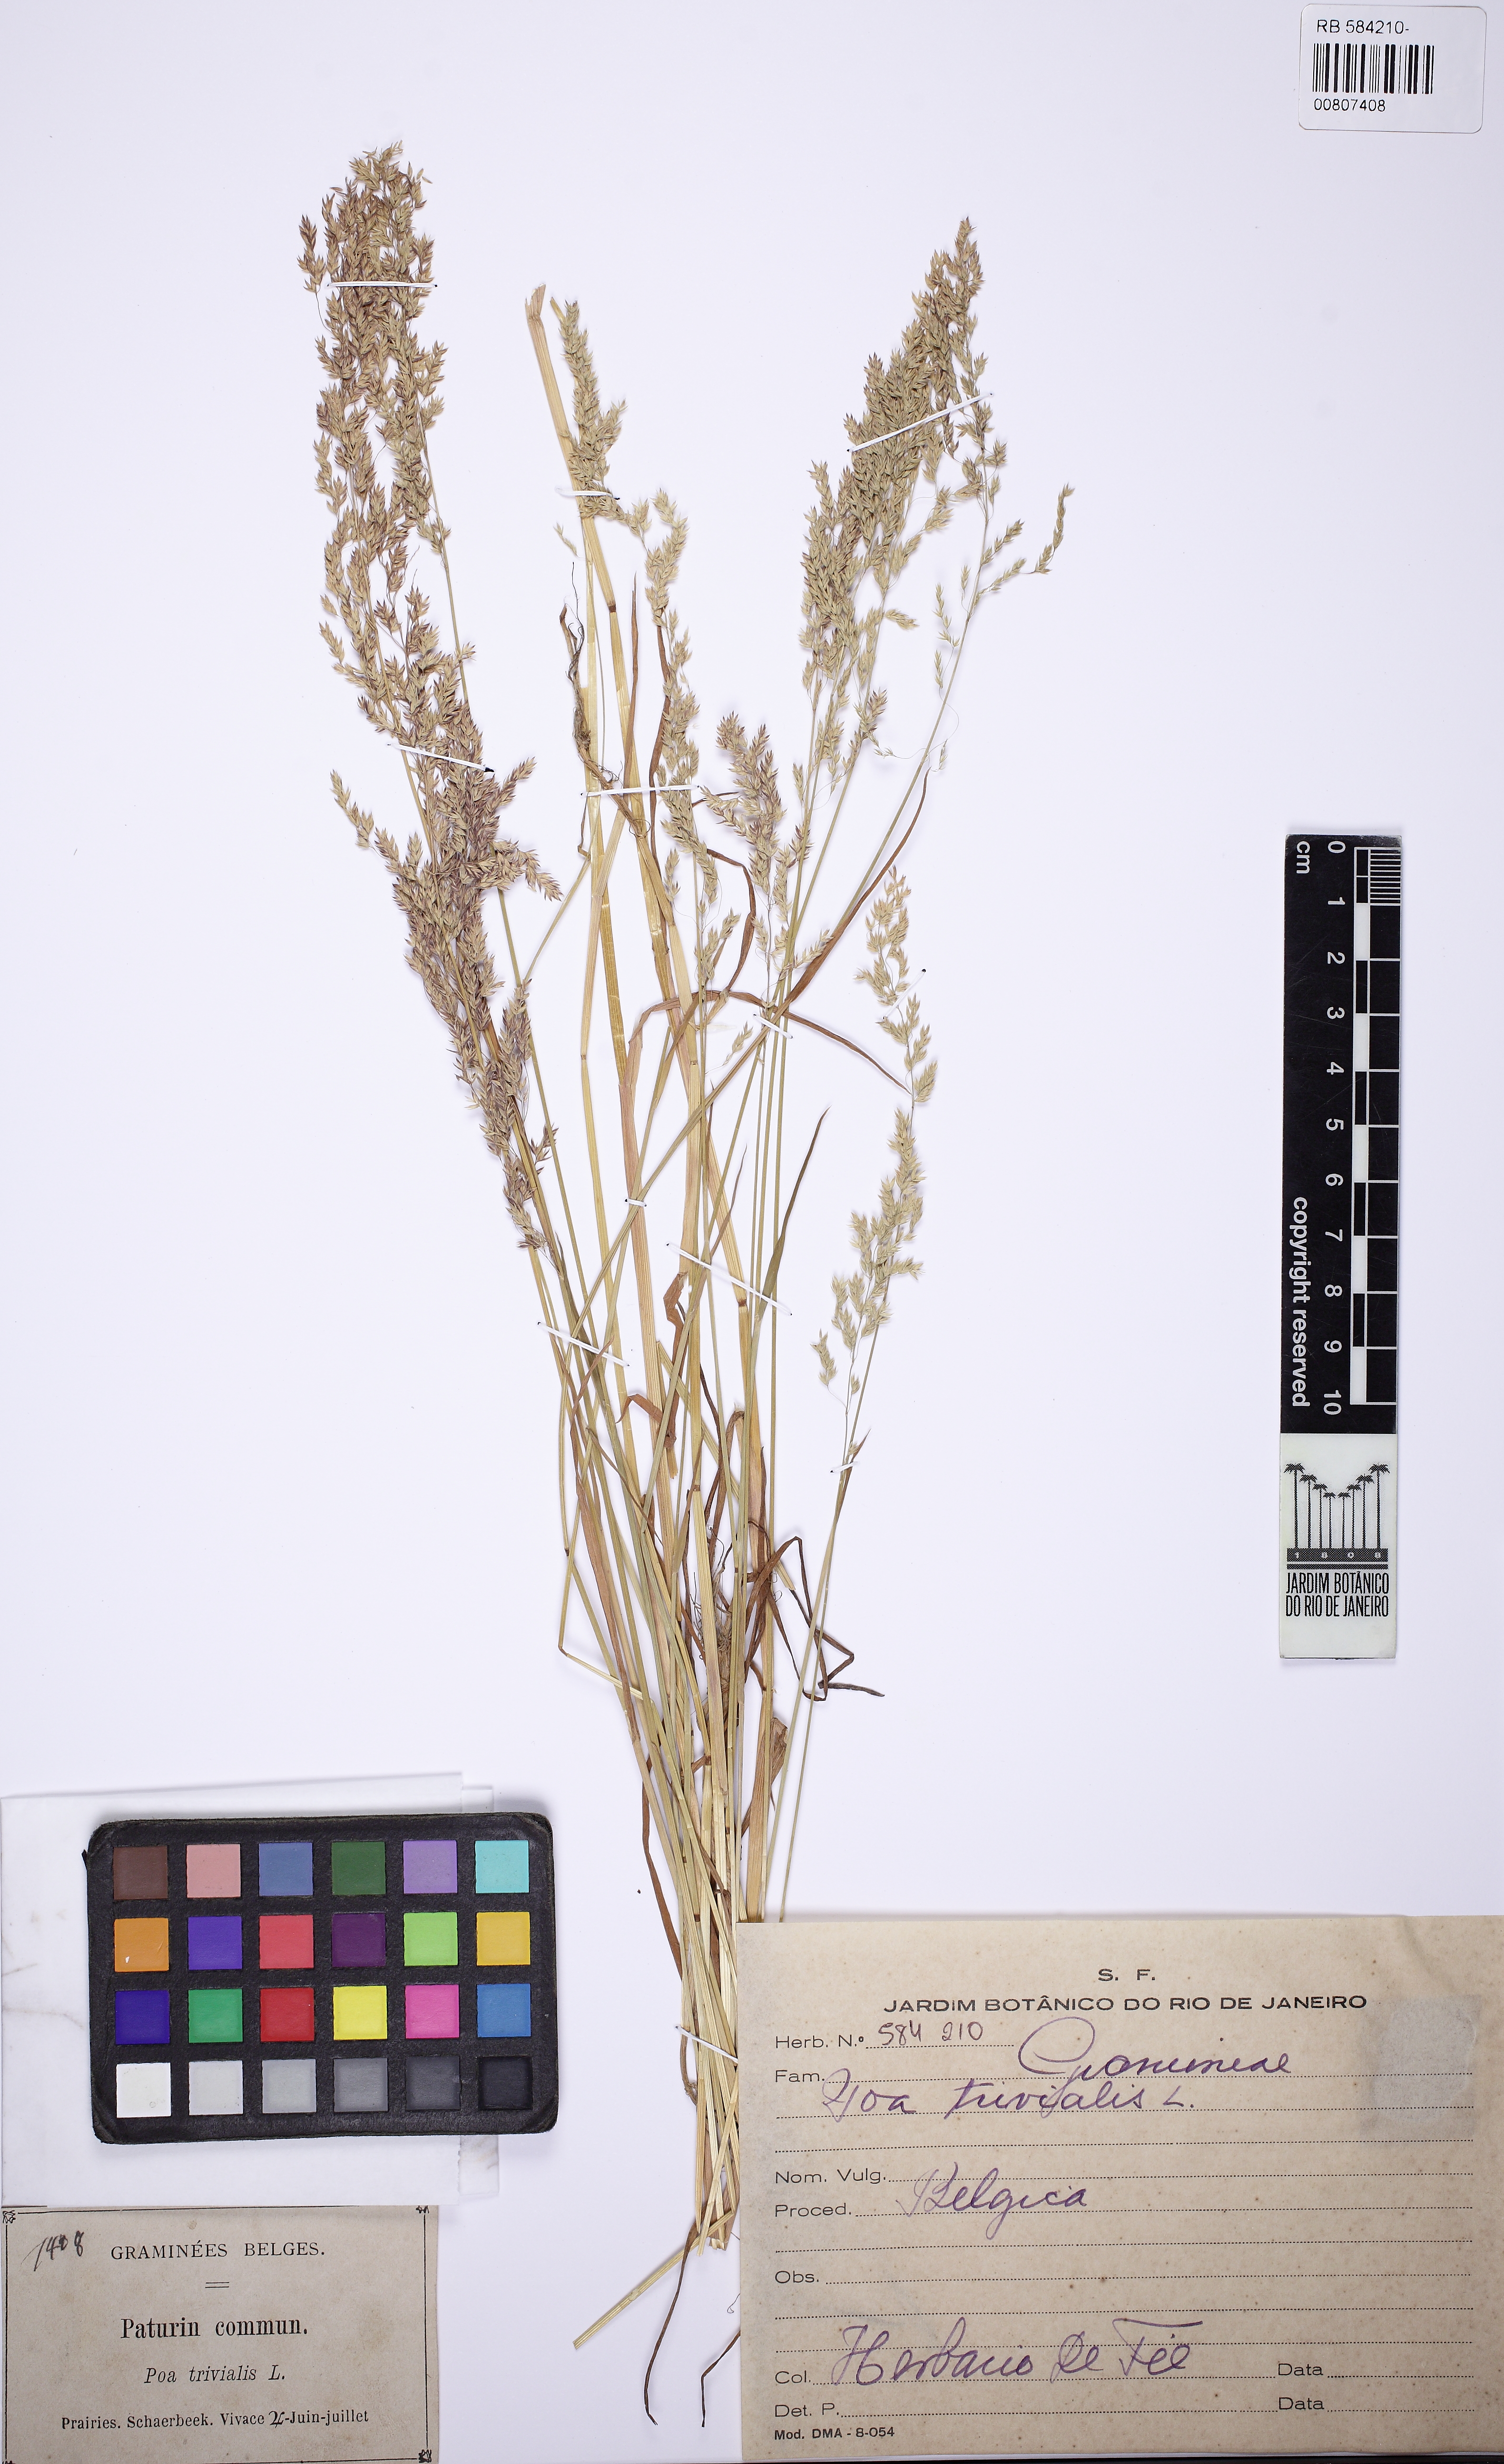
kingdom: Plantae
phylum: Tracheophyta
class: Liliopsida
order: Poales
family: Poaceae
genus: Poa
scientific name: Poa trivialis
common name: Rough bluegrass
